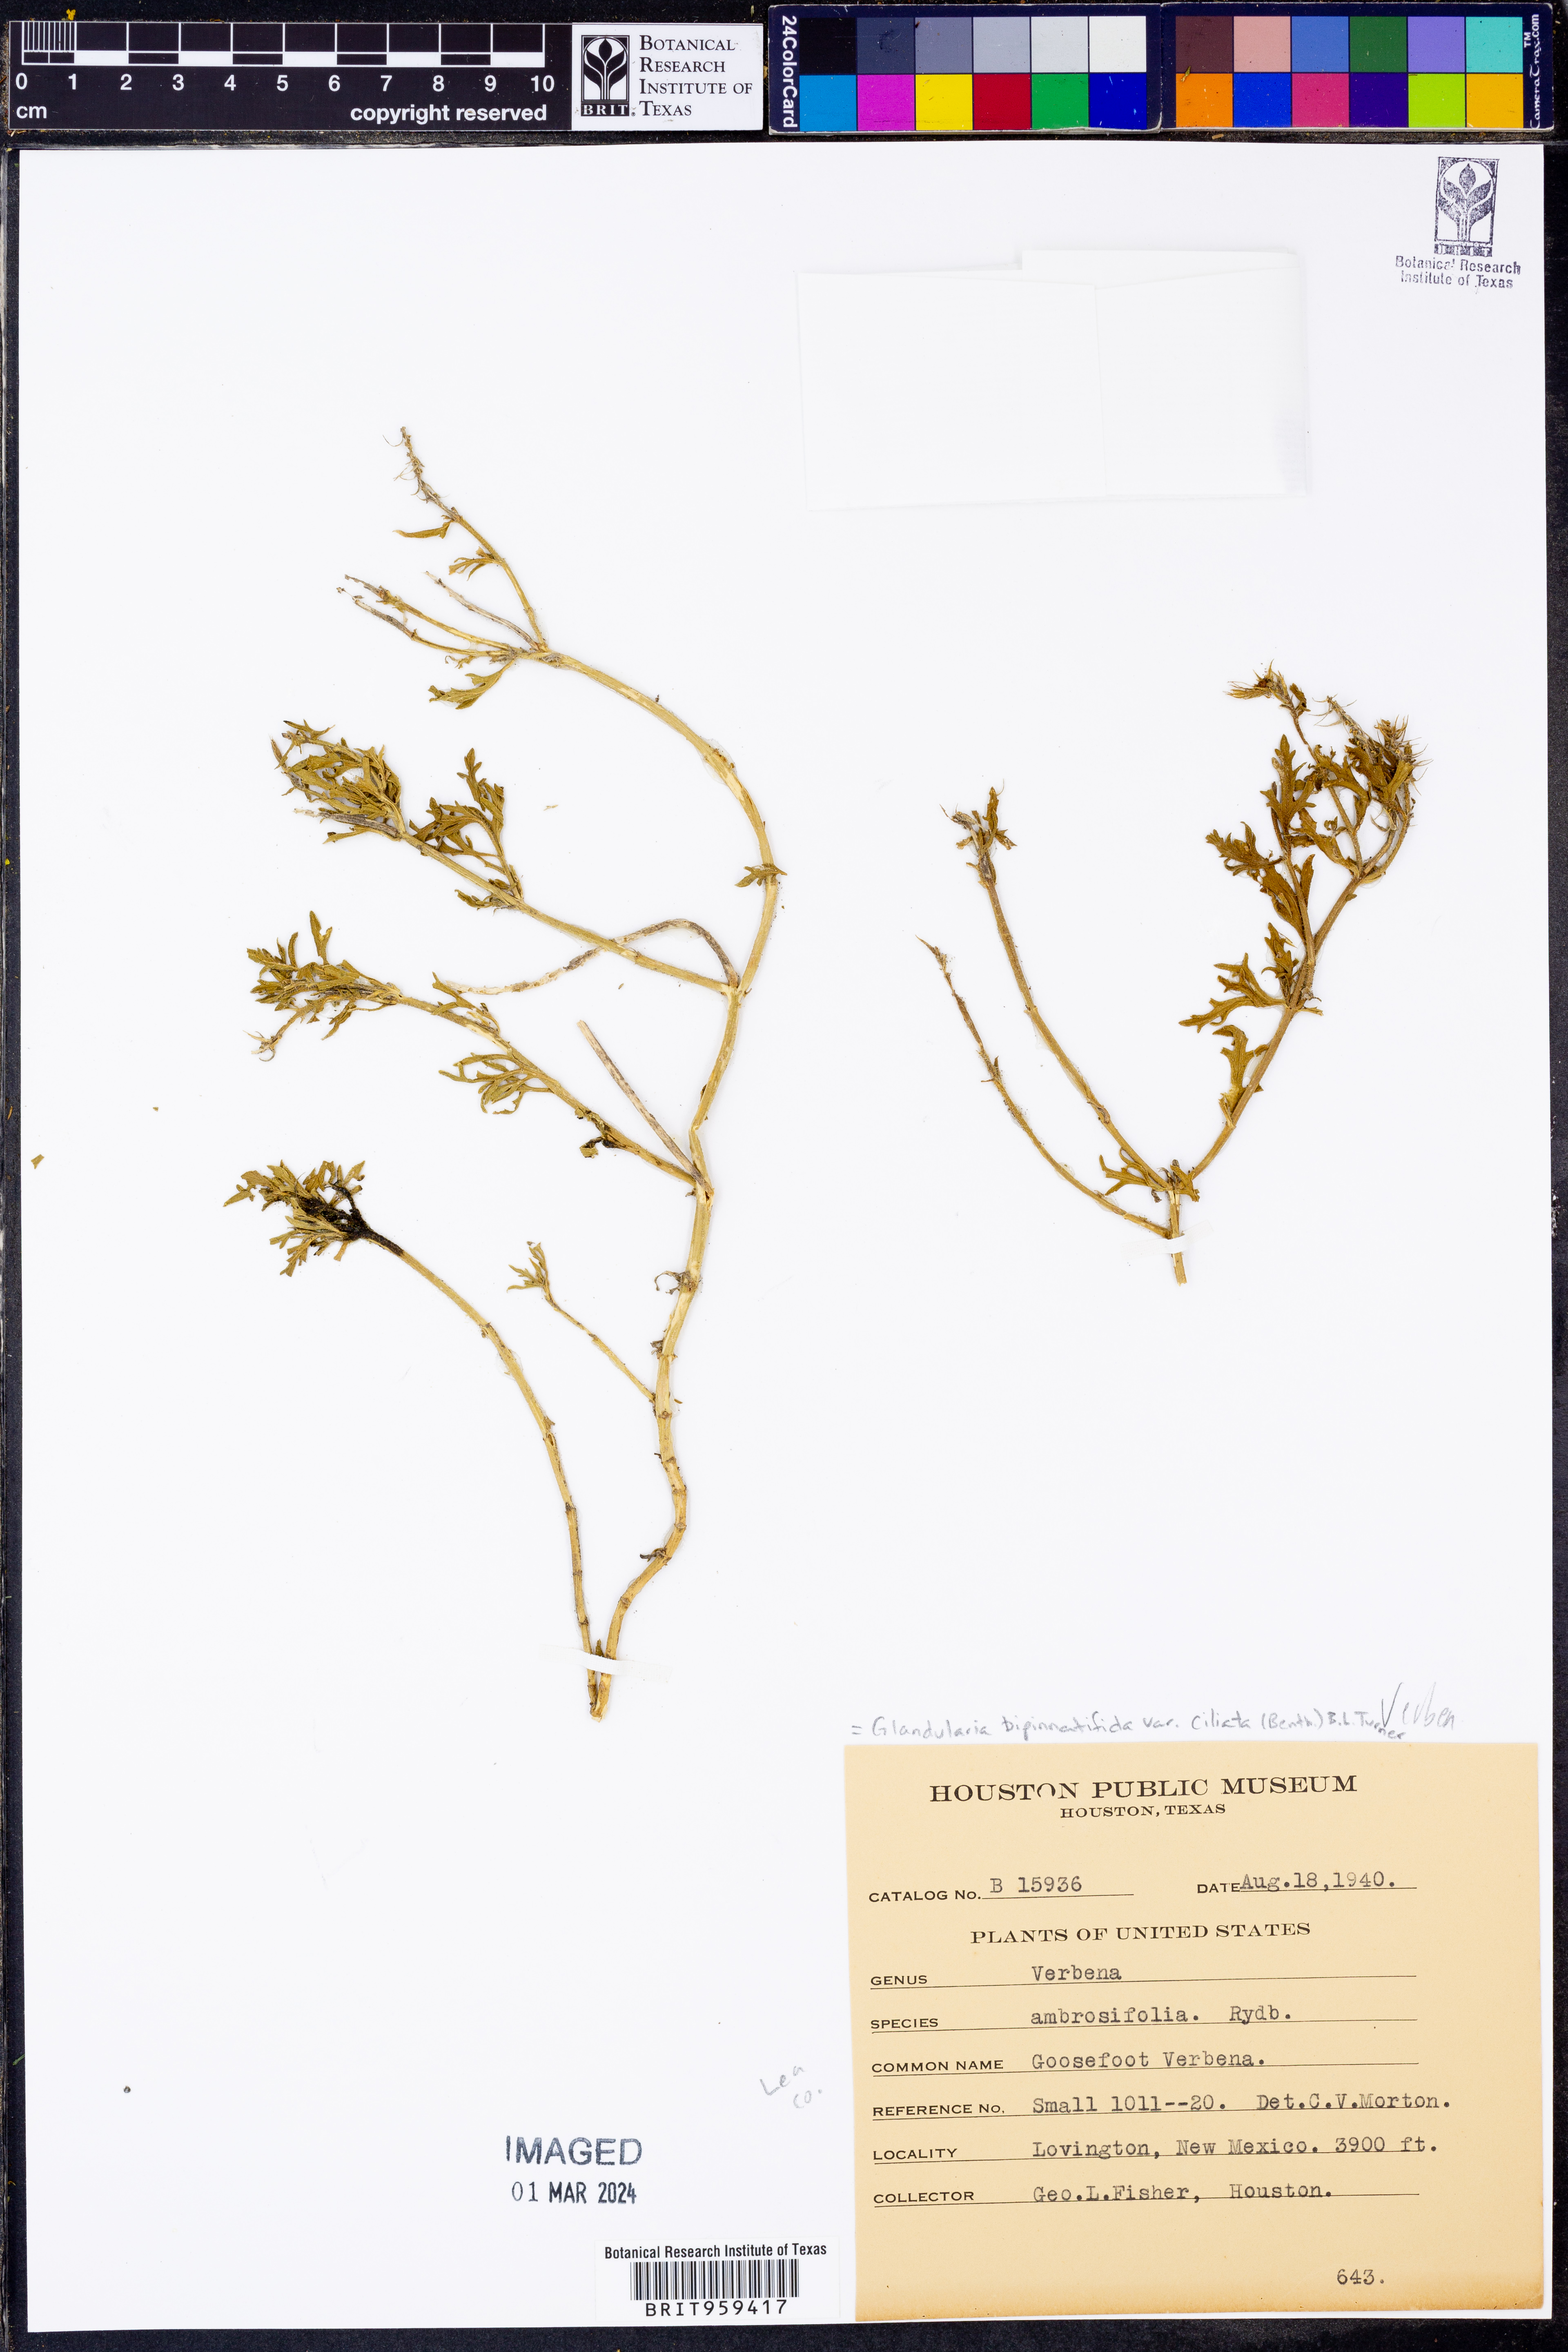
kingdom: Plantae
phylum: Tracheophyta
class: Magnoliopsida
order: Lamiales
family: Verbenaceae
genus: Verbena
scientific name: Verbena bipinnatifida
